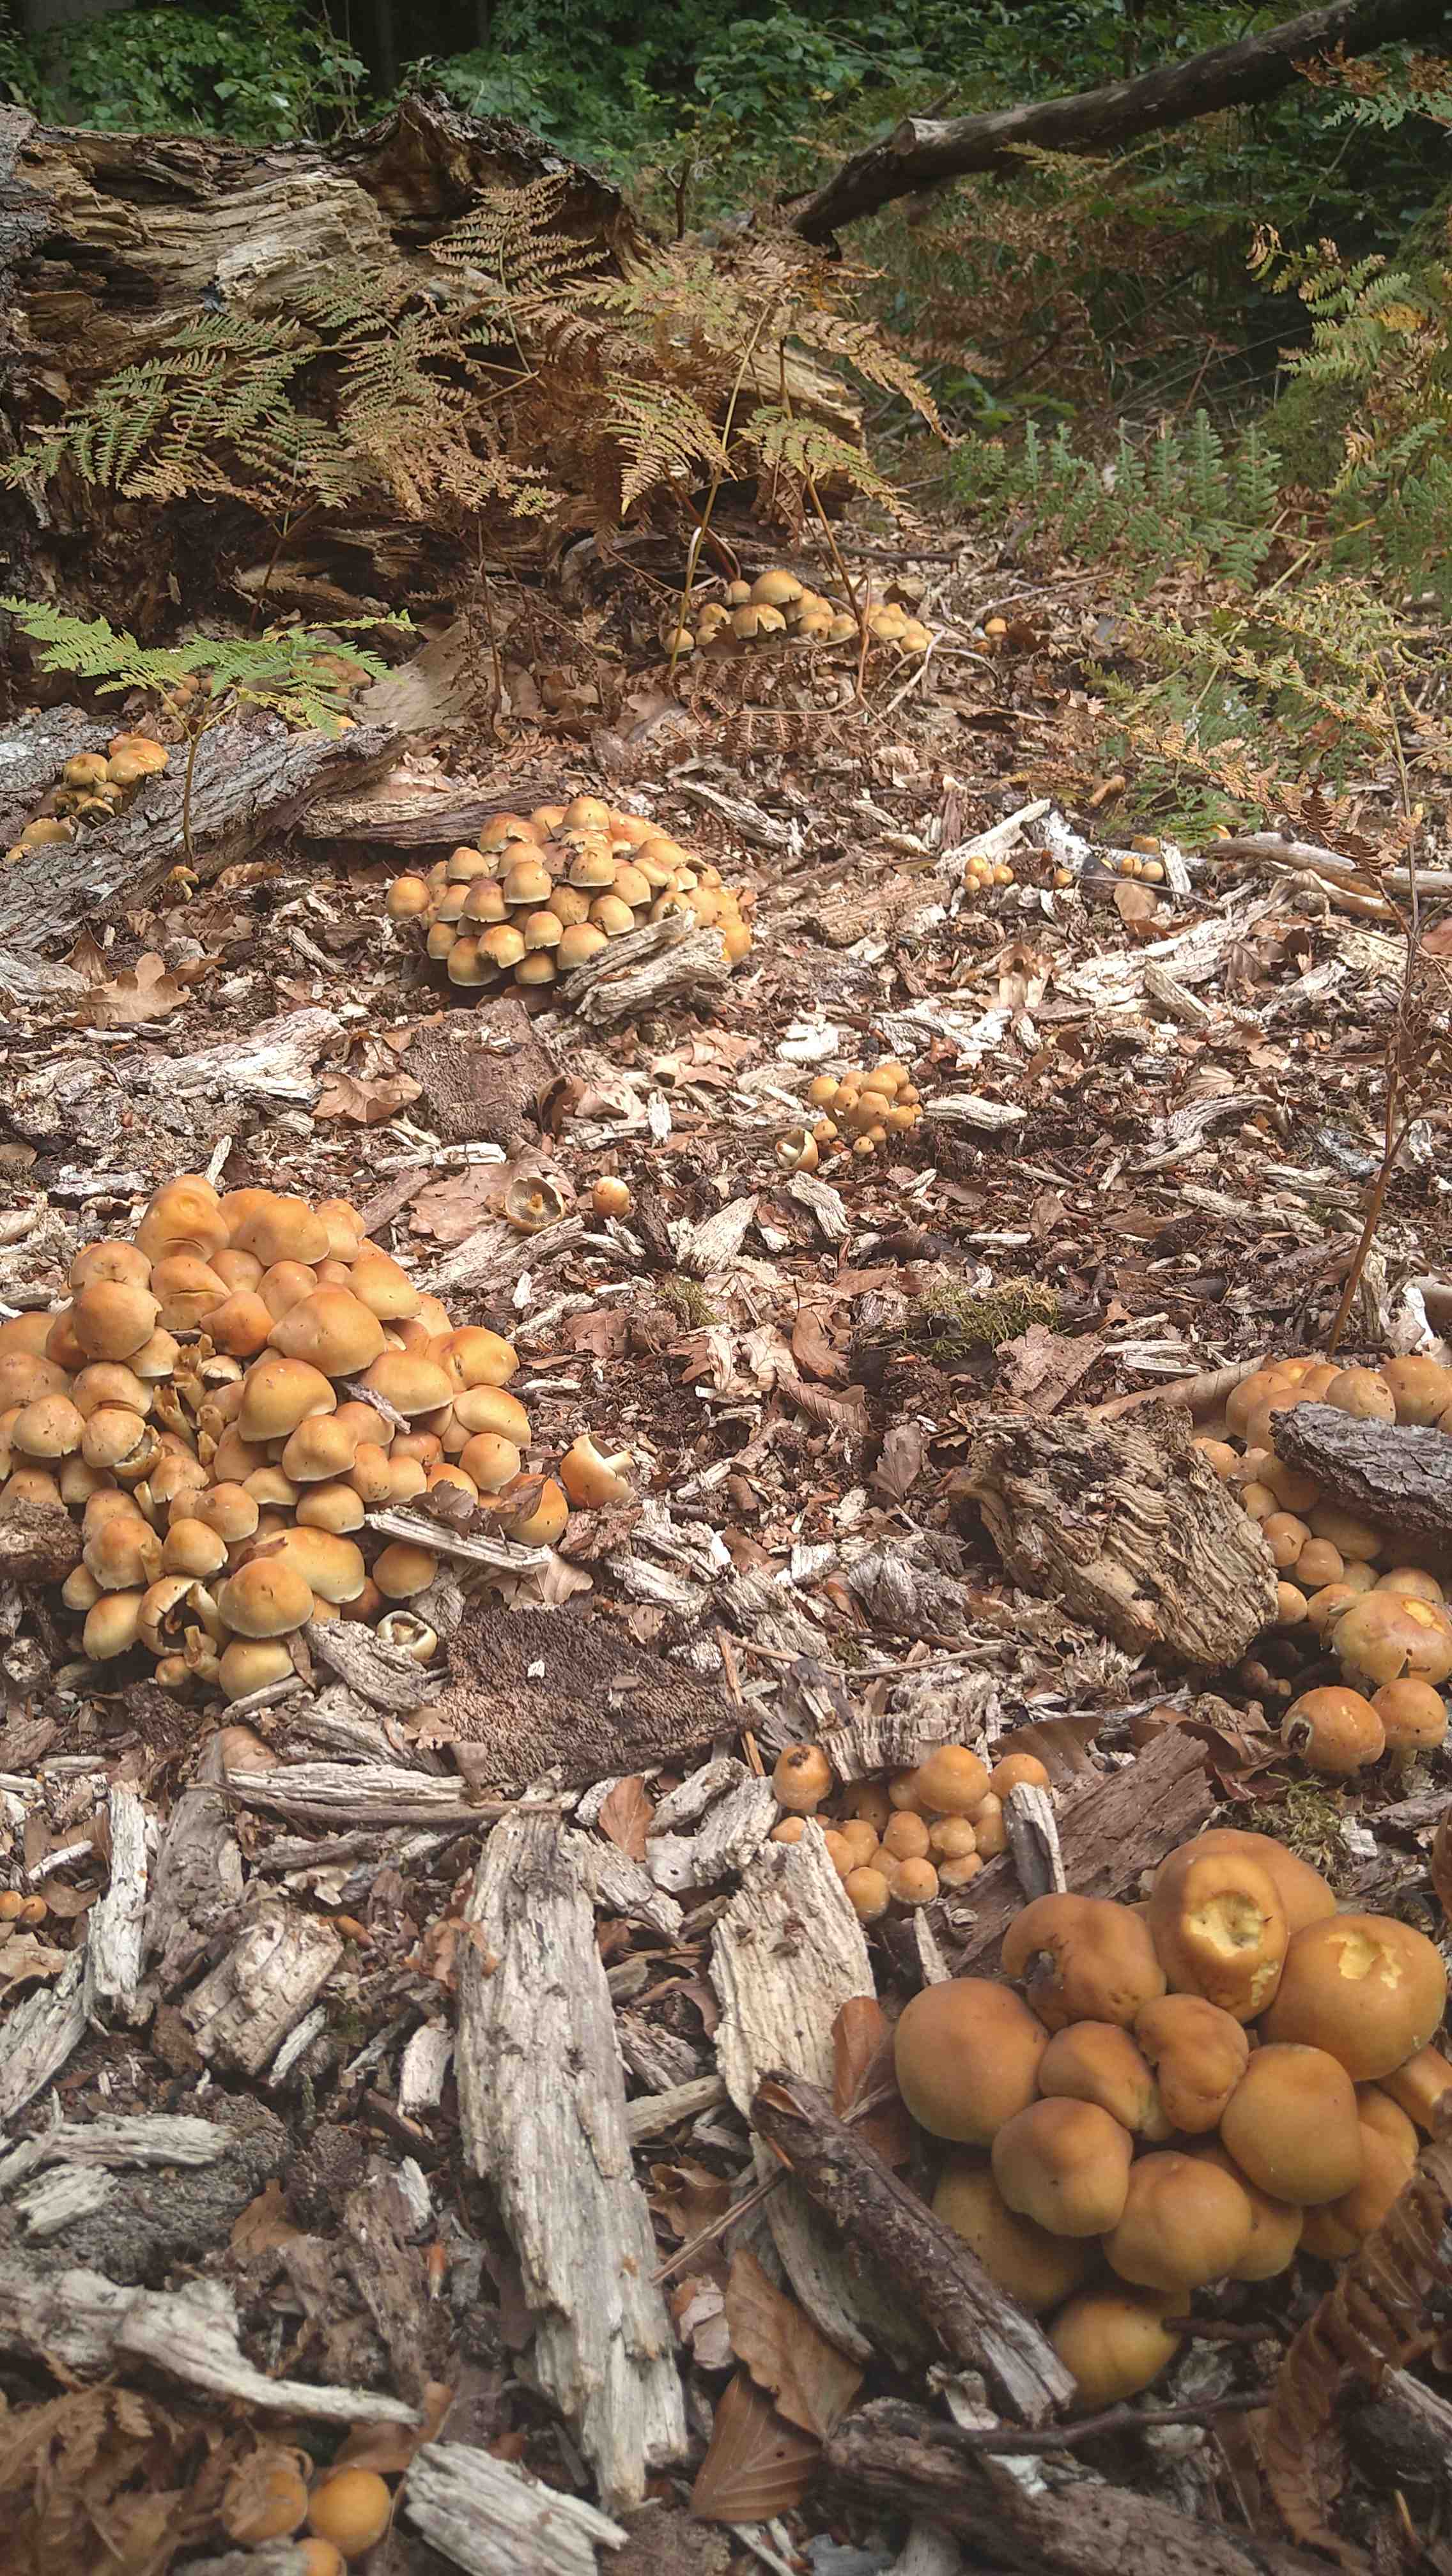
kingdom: Fungi
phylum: Basidiomycota
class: Agaricomycetes
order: Agaricales
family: Strophariaceae
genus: Hypholoma
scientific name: Hypholoma fasciculare
